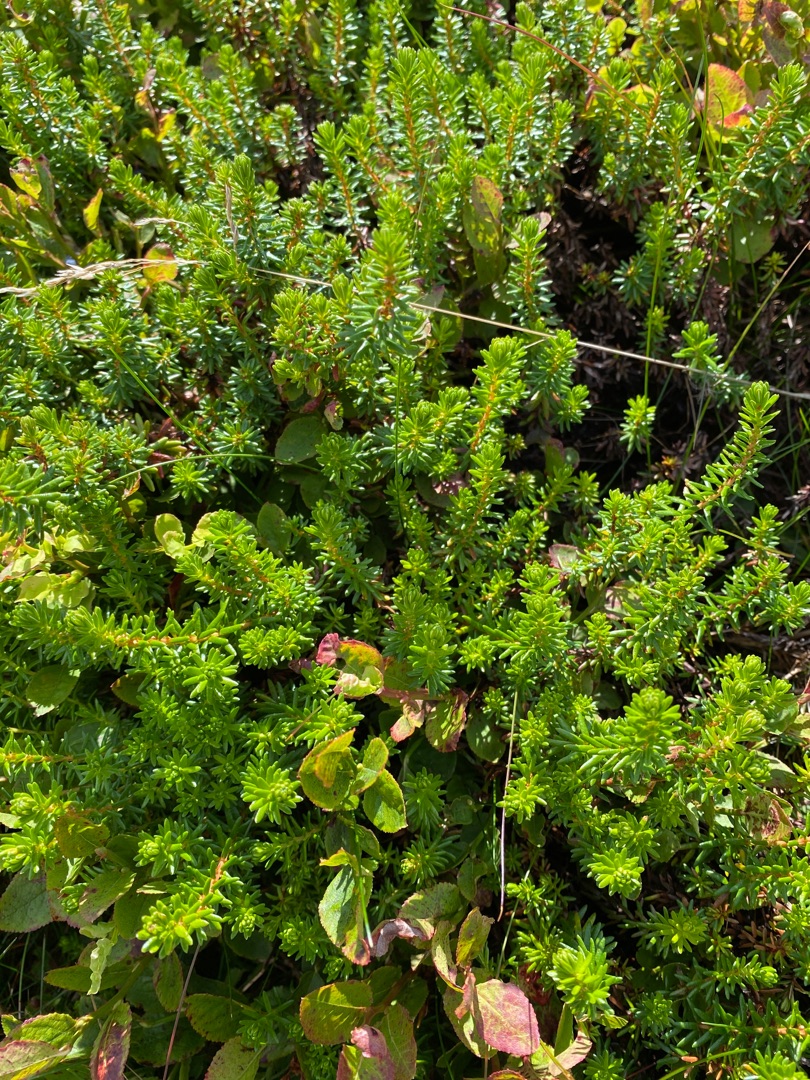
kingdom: Plantae
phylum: Tracheophyta
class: Magnoliopsida
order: Ericales
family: Ericaceae
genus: Empetrum
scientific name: Empetrum nigrum
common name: Revling
